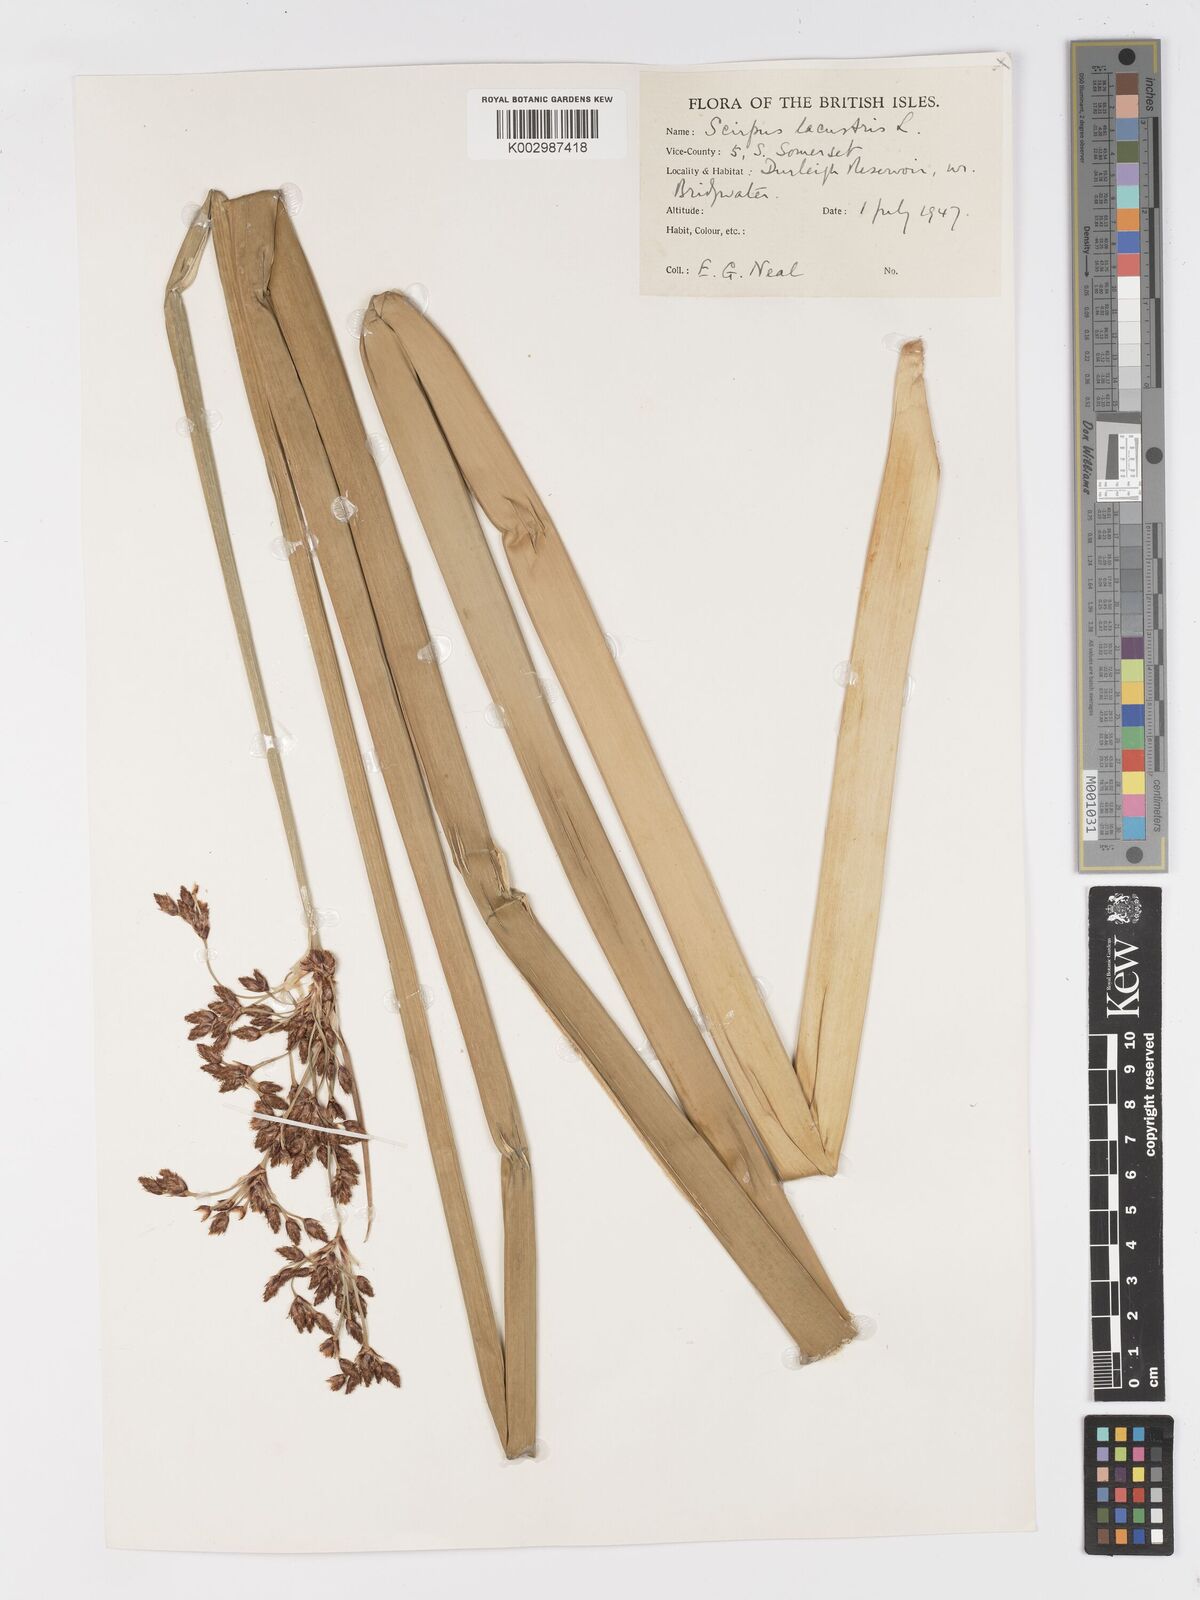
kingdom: Plantae
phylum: Tracheophyta
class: Liliopsida
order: Poales
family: Cyperaceae
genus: Schoenoplectus
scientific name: Schoenoplectus lacustris
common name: Common club-rush
